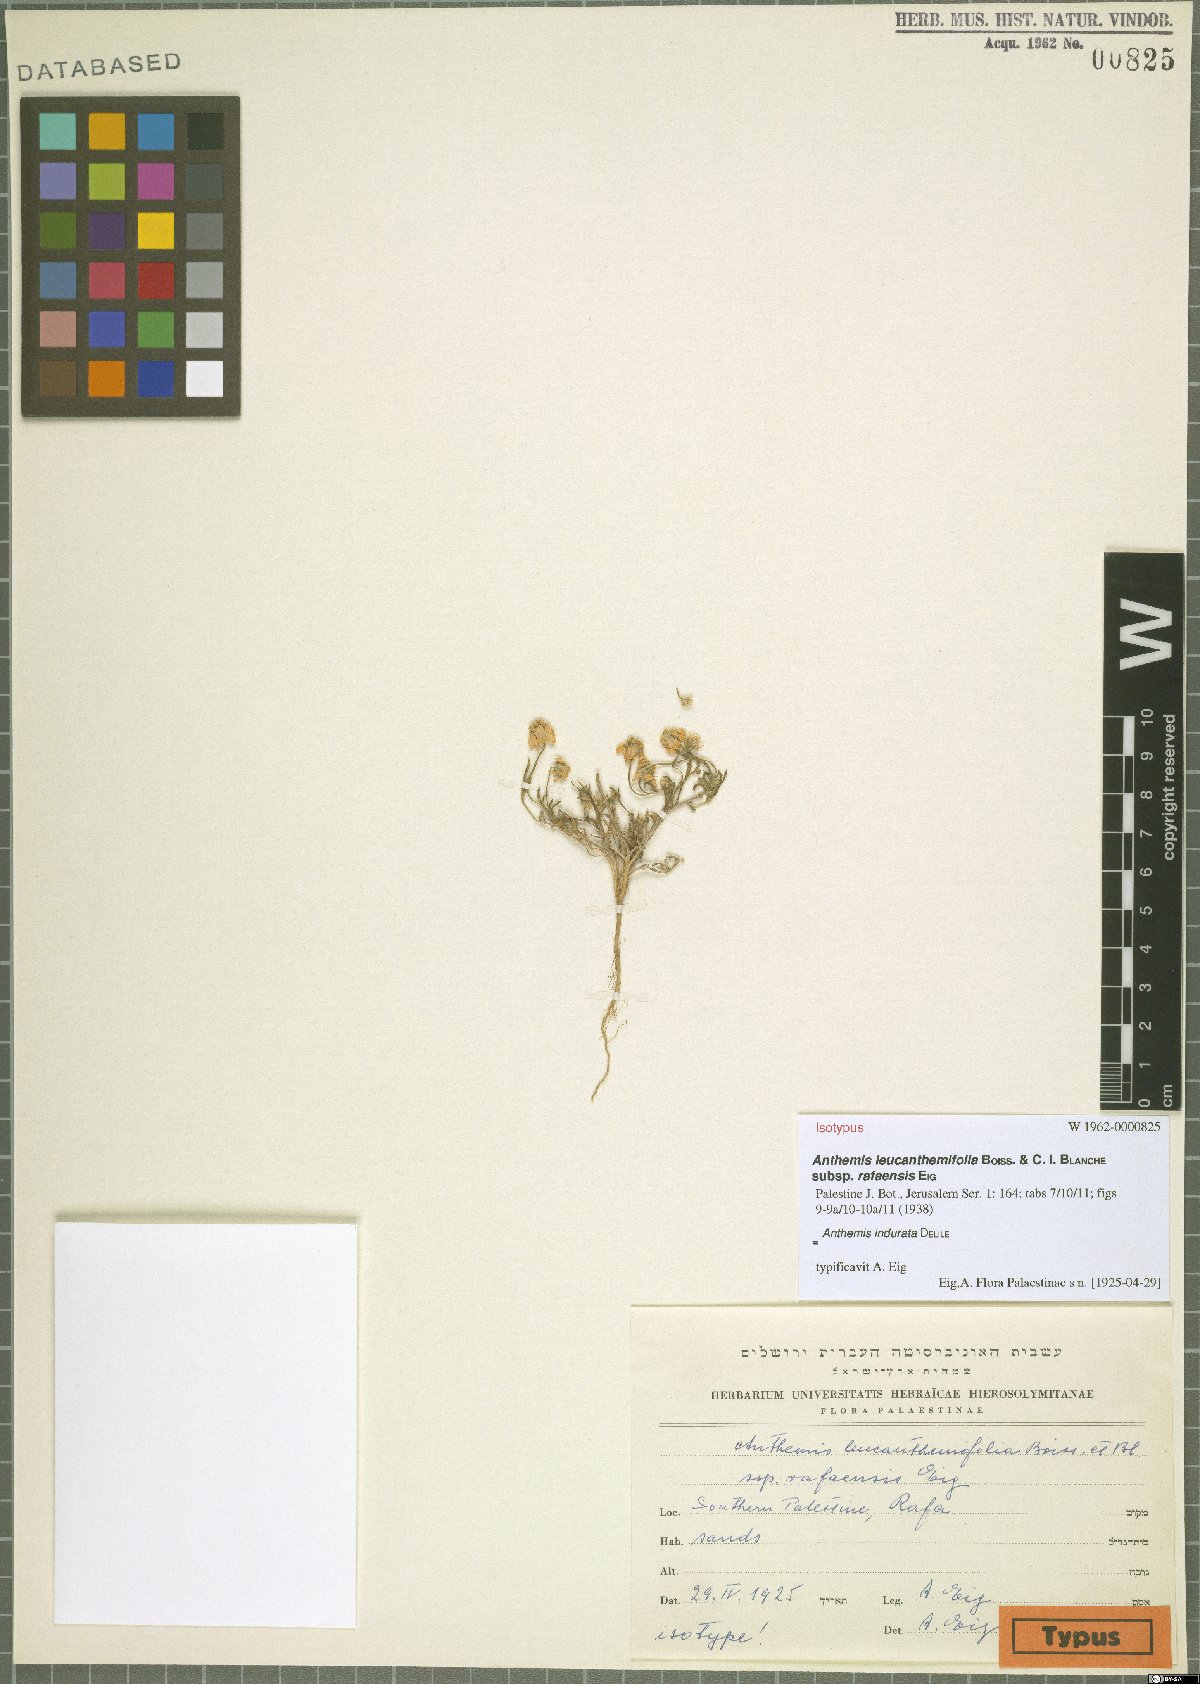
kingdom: Plantae
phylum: Tracheophyta
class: Magnoliopsida
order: Asterales
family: Asteraceae
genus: Anthemis
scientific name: Anthemis indurata
